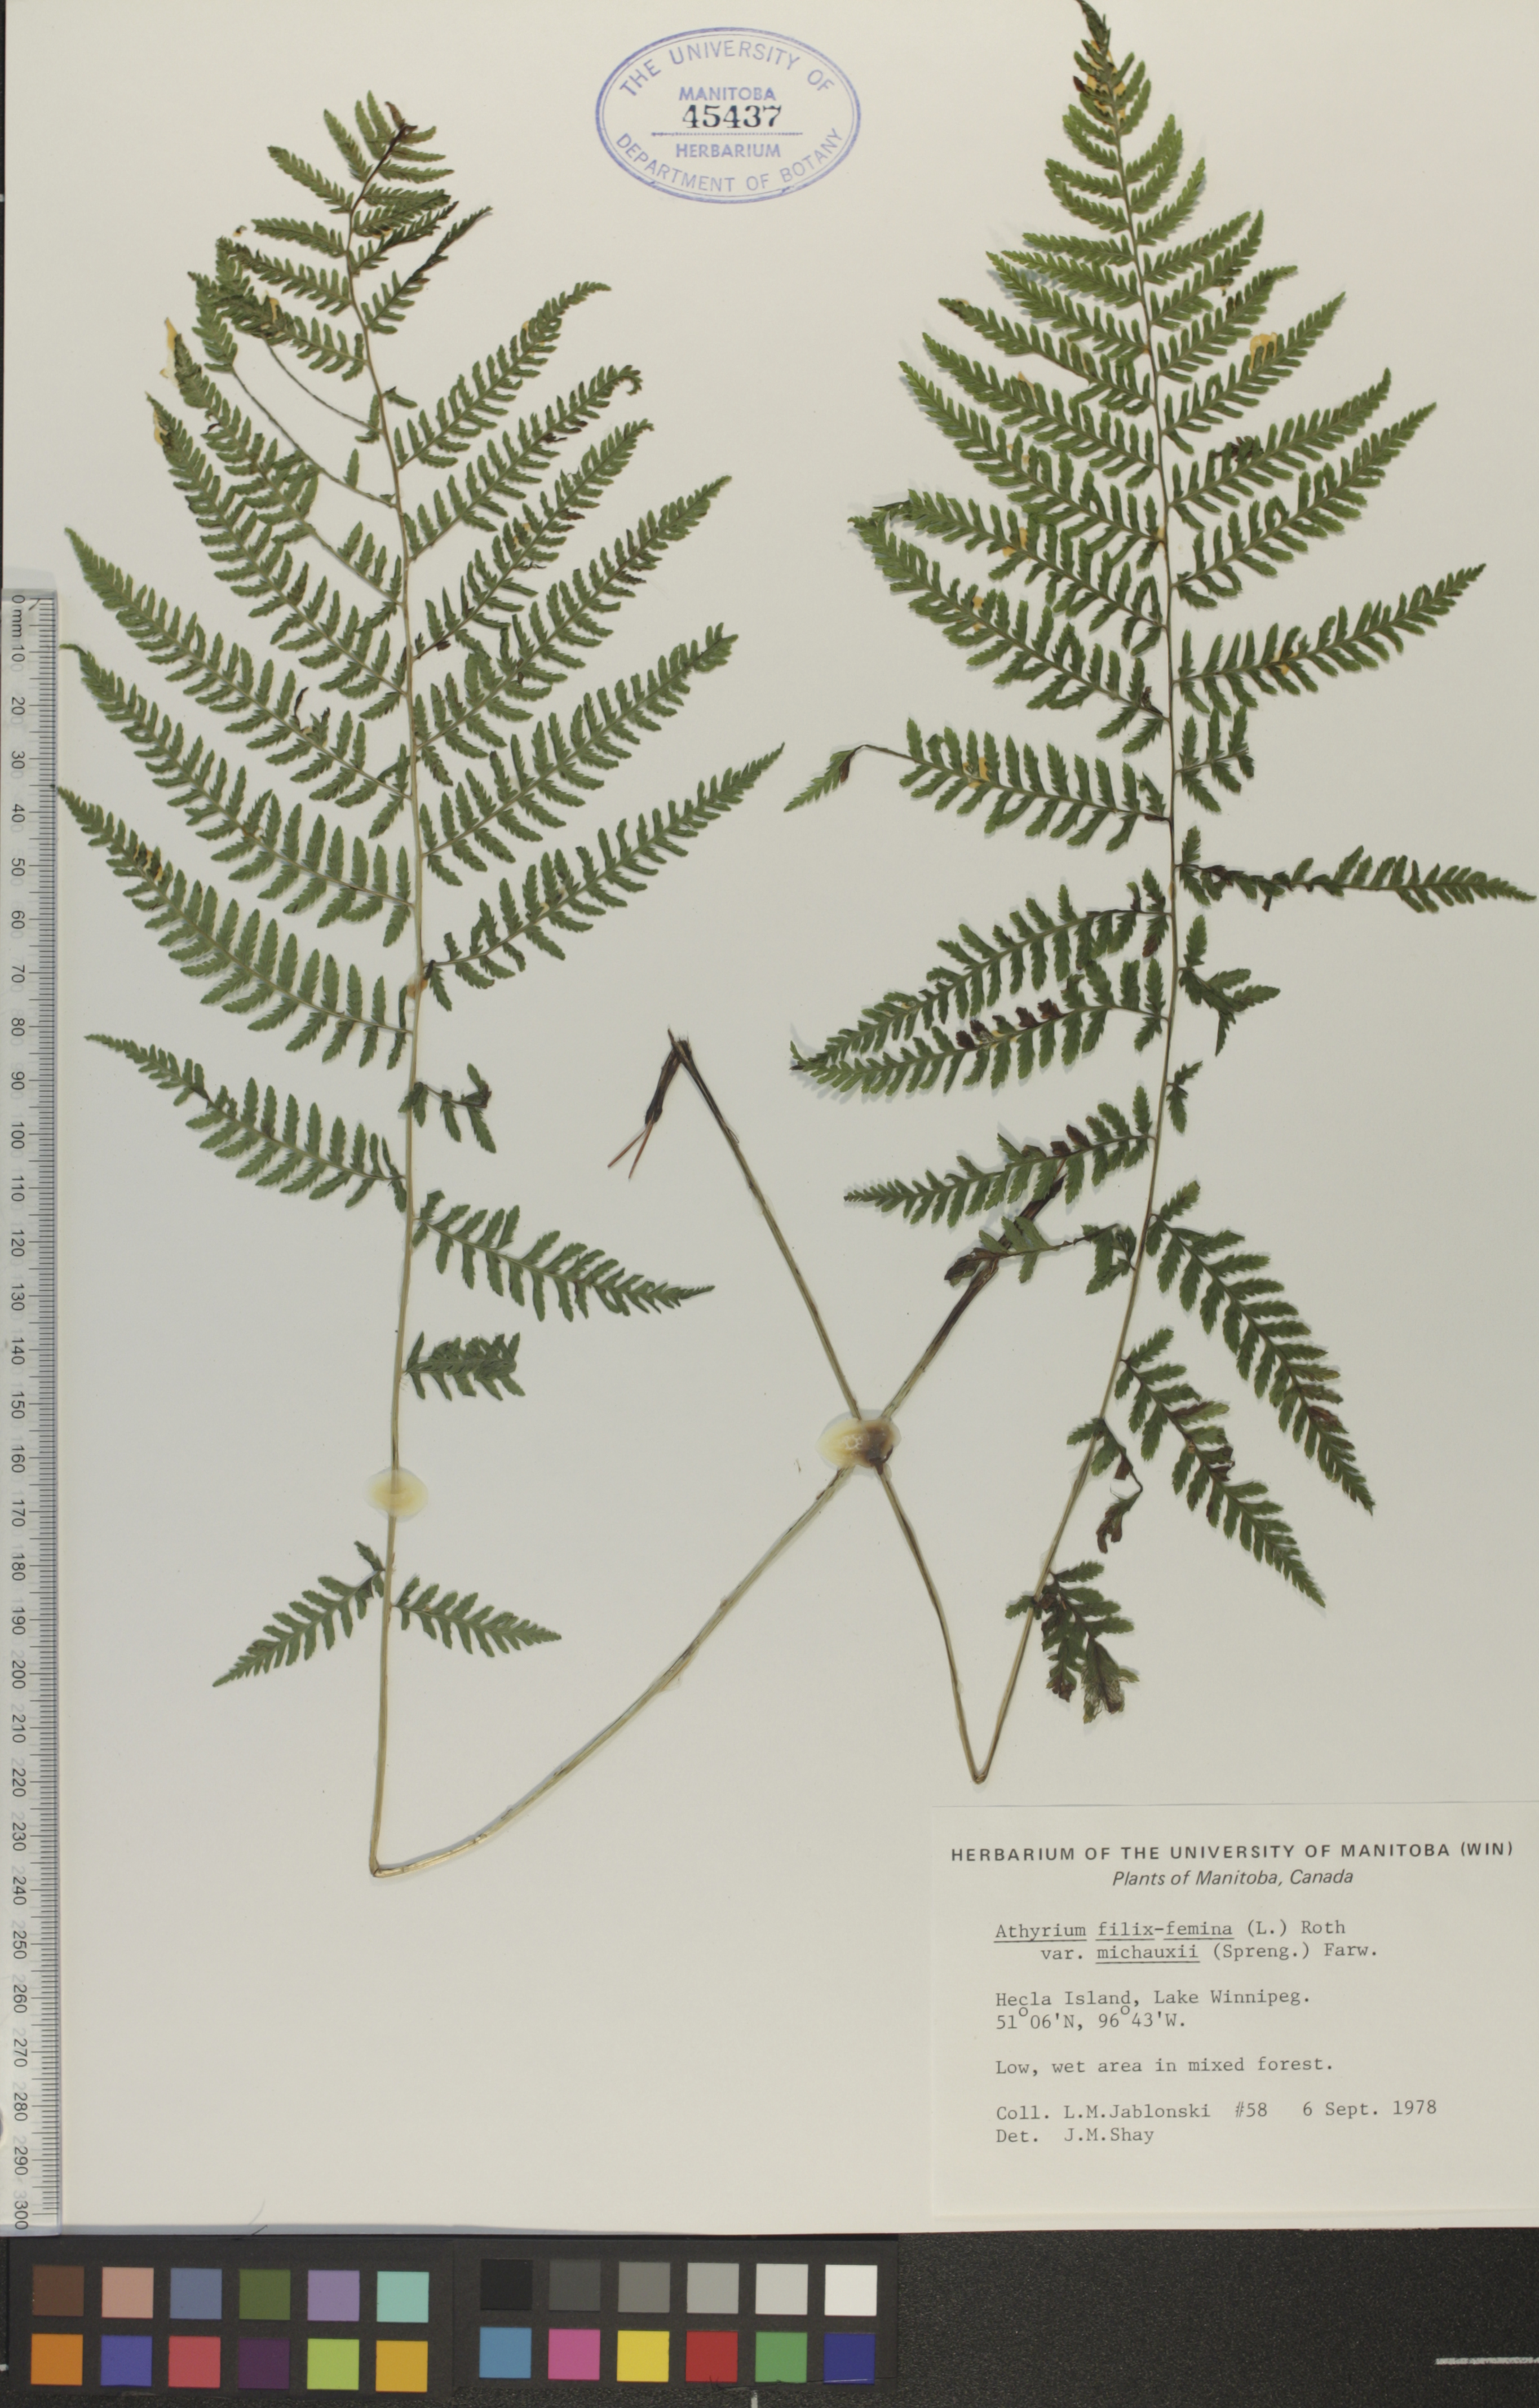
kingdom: Plantae
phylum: Tracheophyta
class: Polypodiopsida
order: Polypodiales
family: Athyriaceae
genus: Athyrium
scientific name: Athyrium angustum
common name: Northern lady fern
